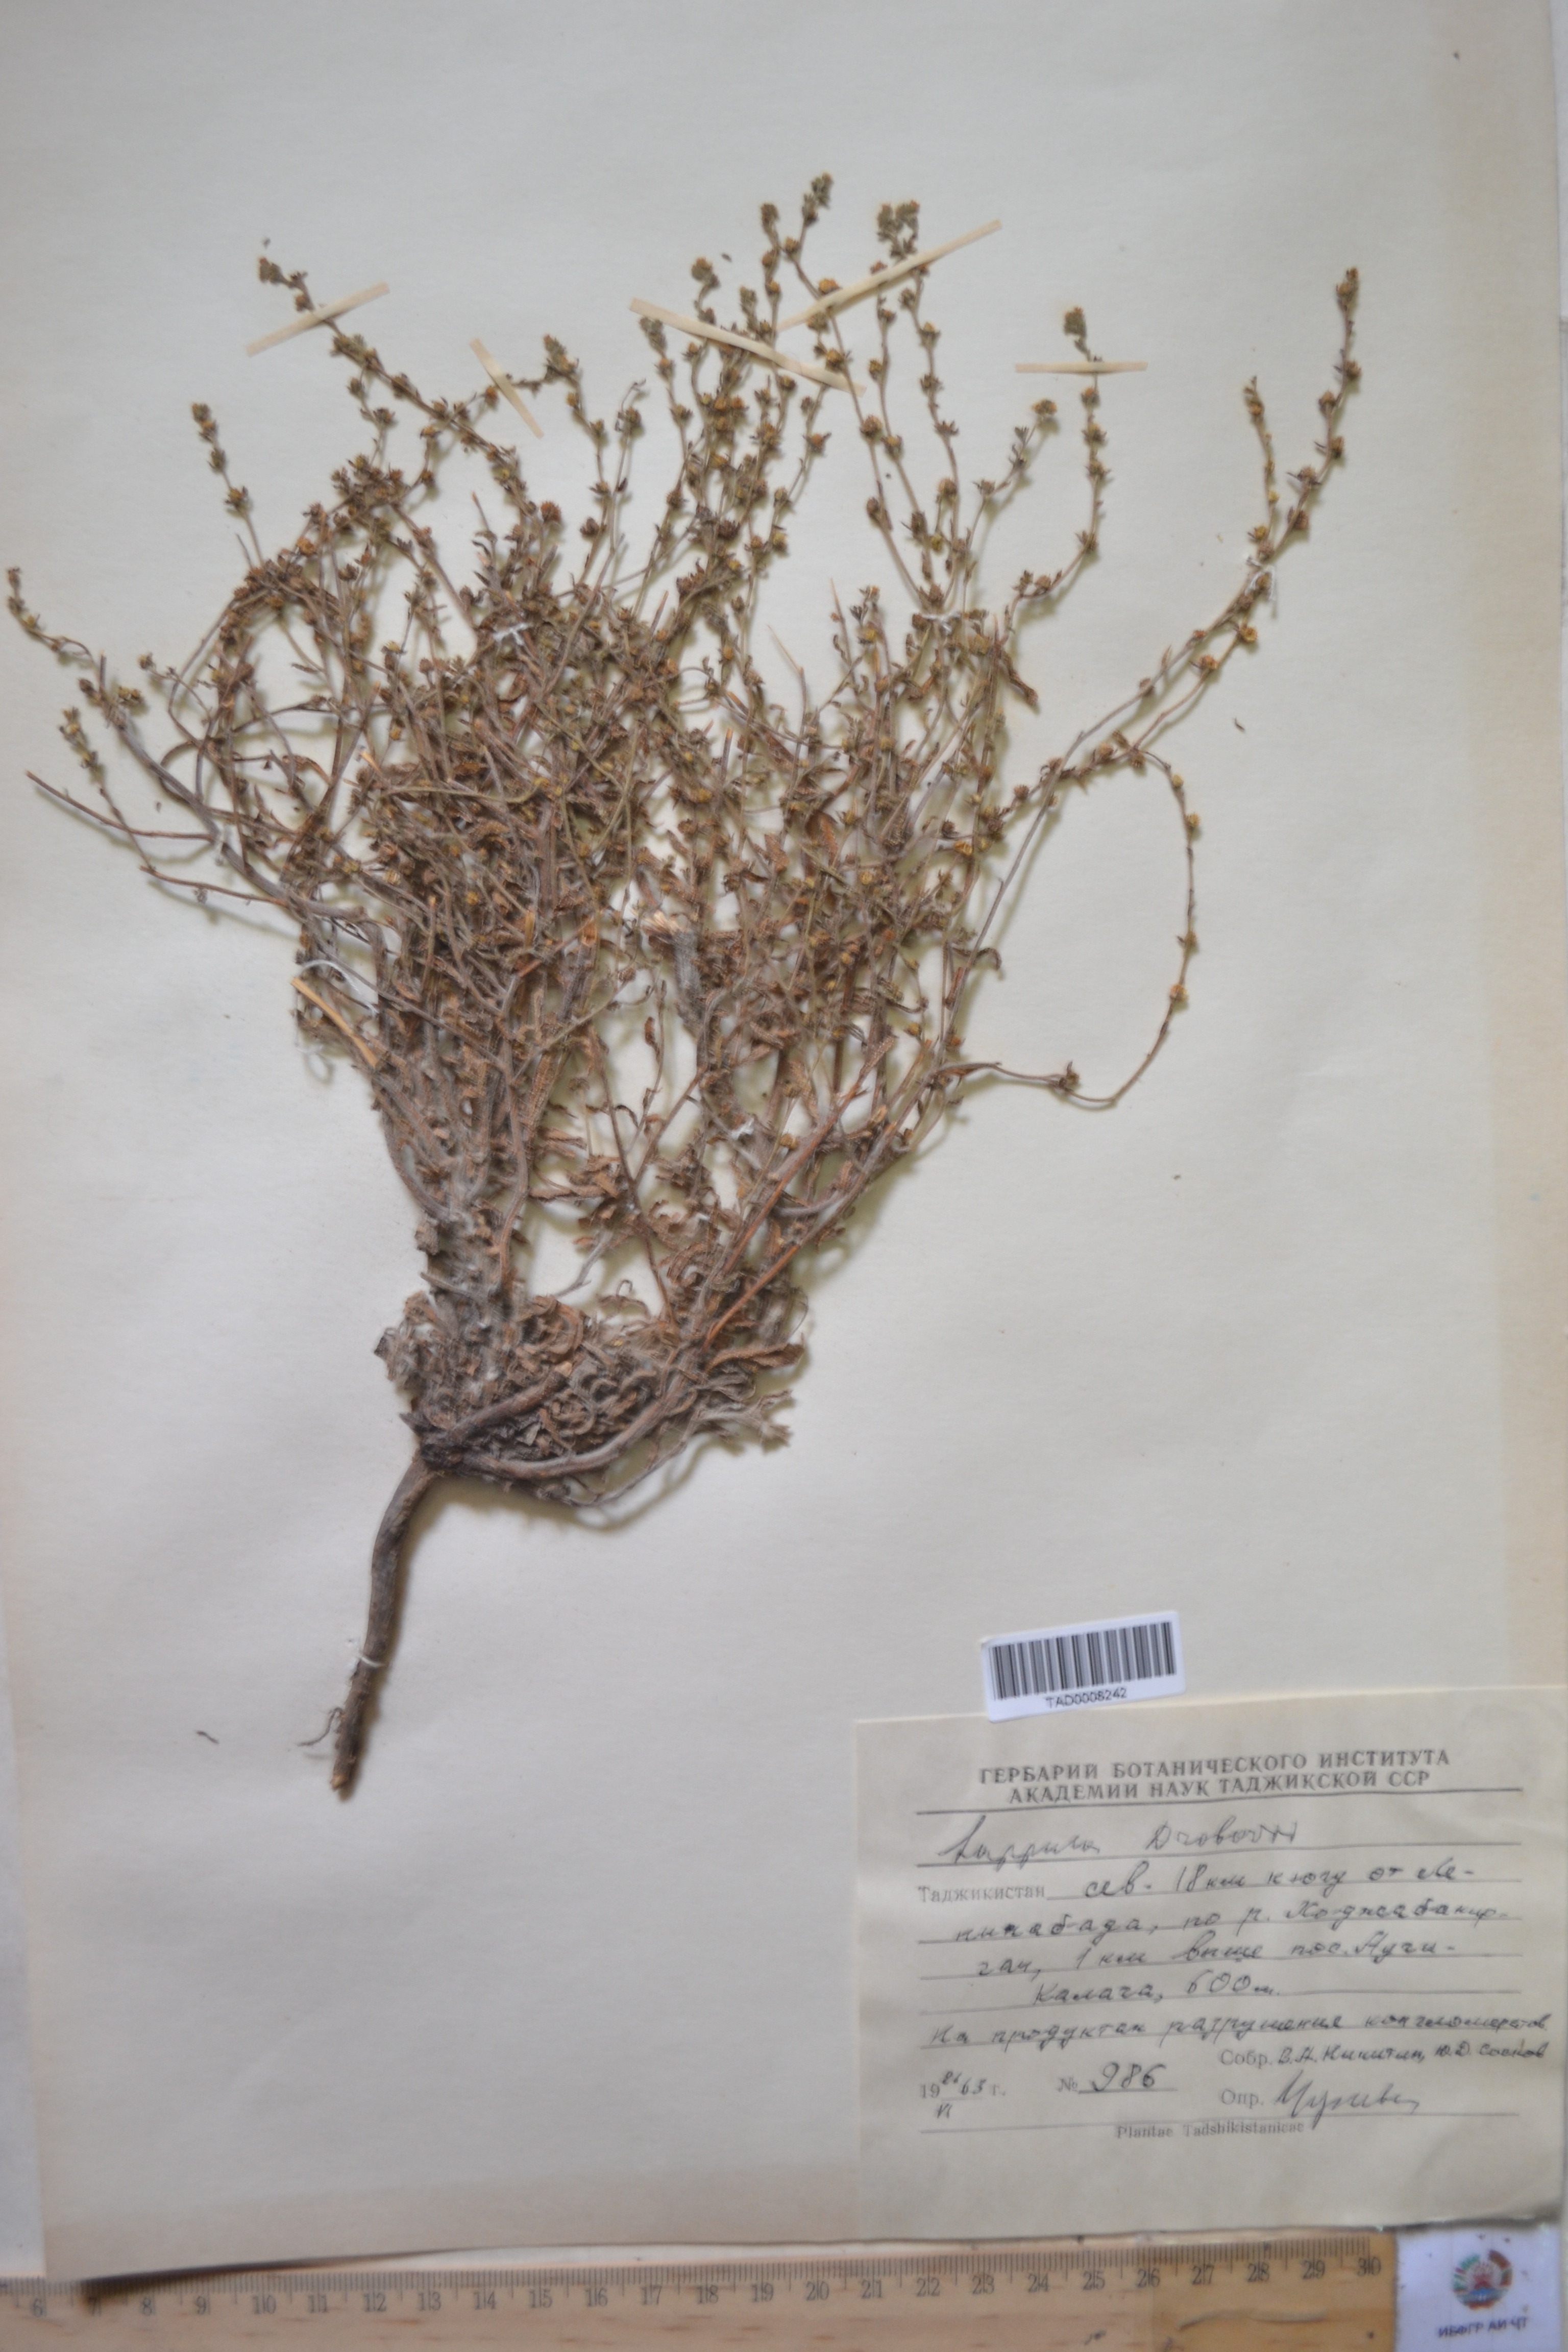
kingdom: Plantae
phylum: Tracheophyta
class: Magnoliopsida
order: Boraginales
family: Boraginaceae
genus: Rochelia
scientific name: Rochelia drobovii
